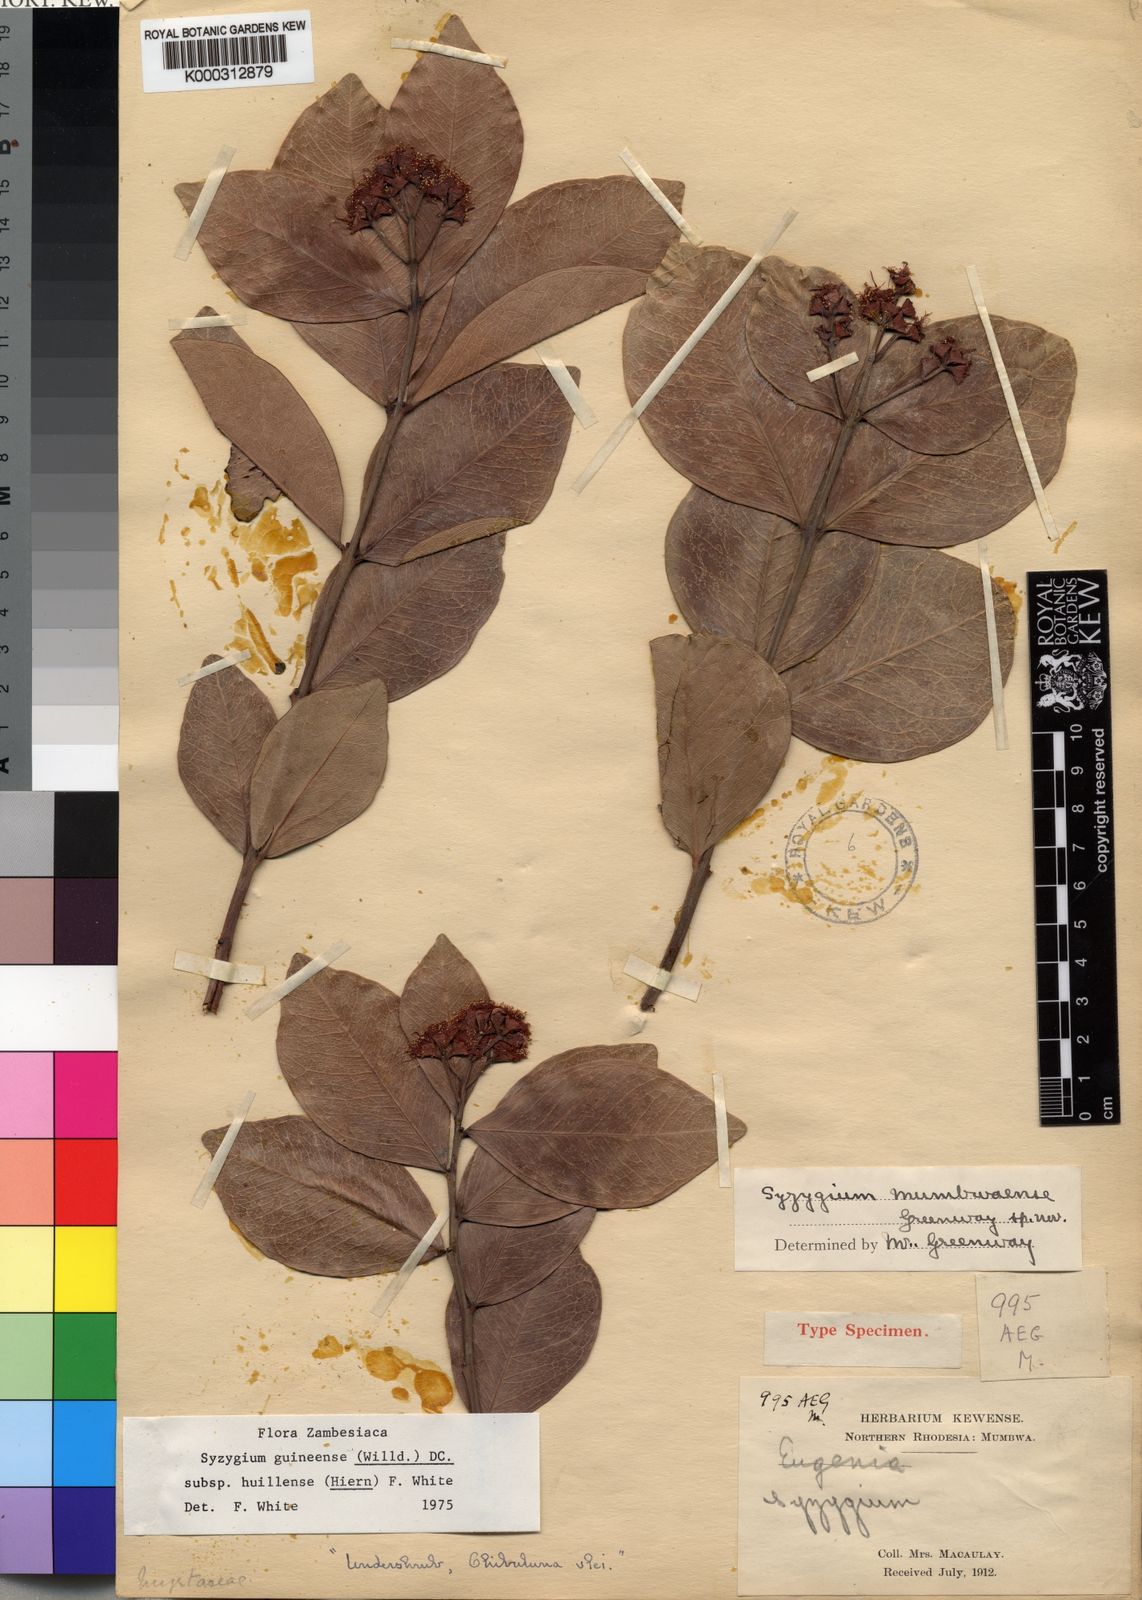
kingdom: Plantae
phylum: Tracheophyta
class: Magnoliopsida
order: Myrtales
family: Myrtaceae
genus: Syzygium
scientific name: Syzygium guineense
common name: Water-pear
